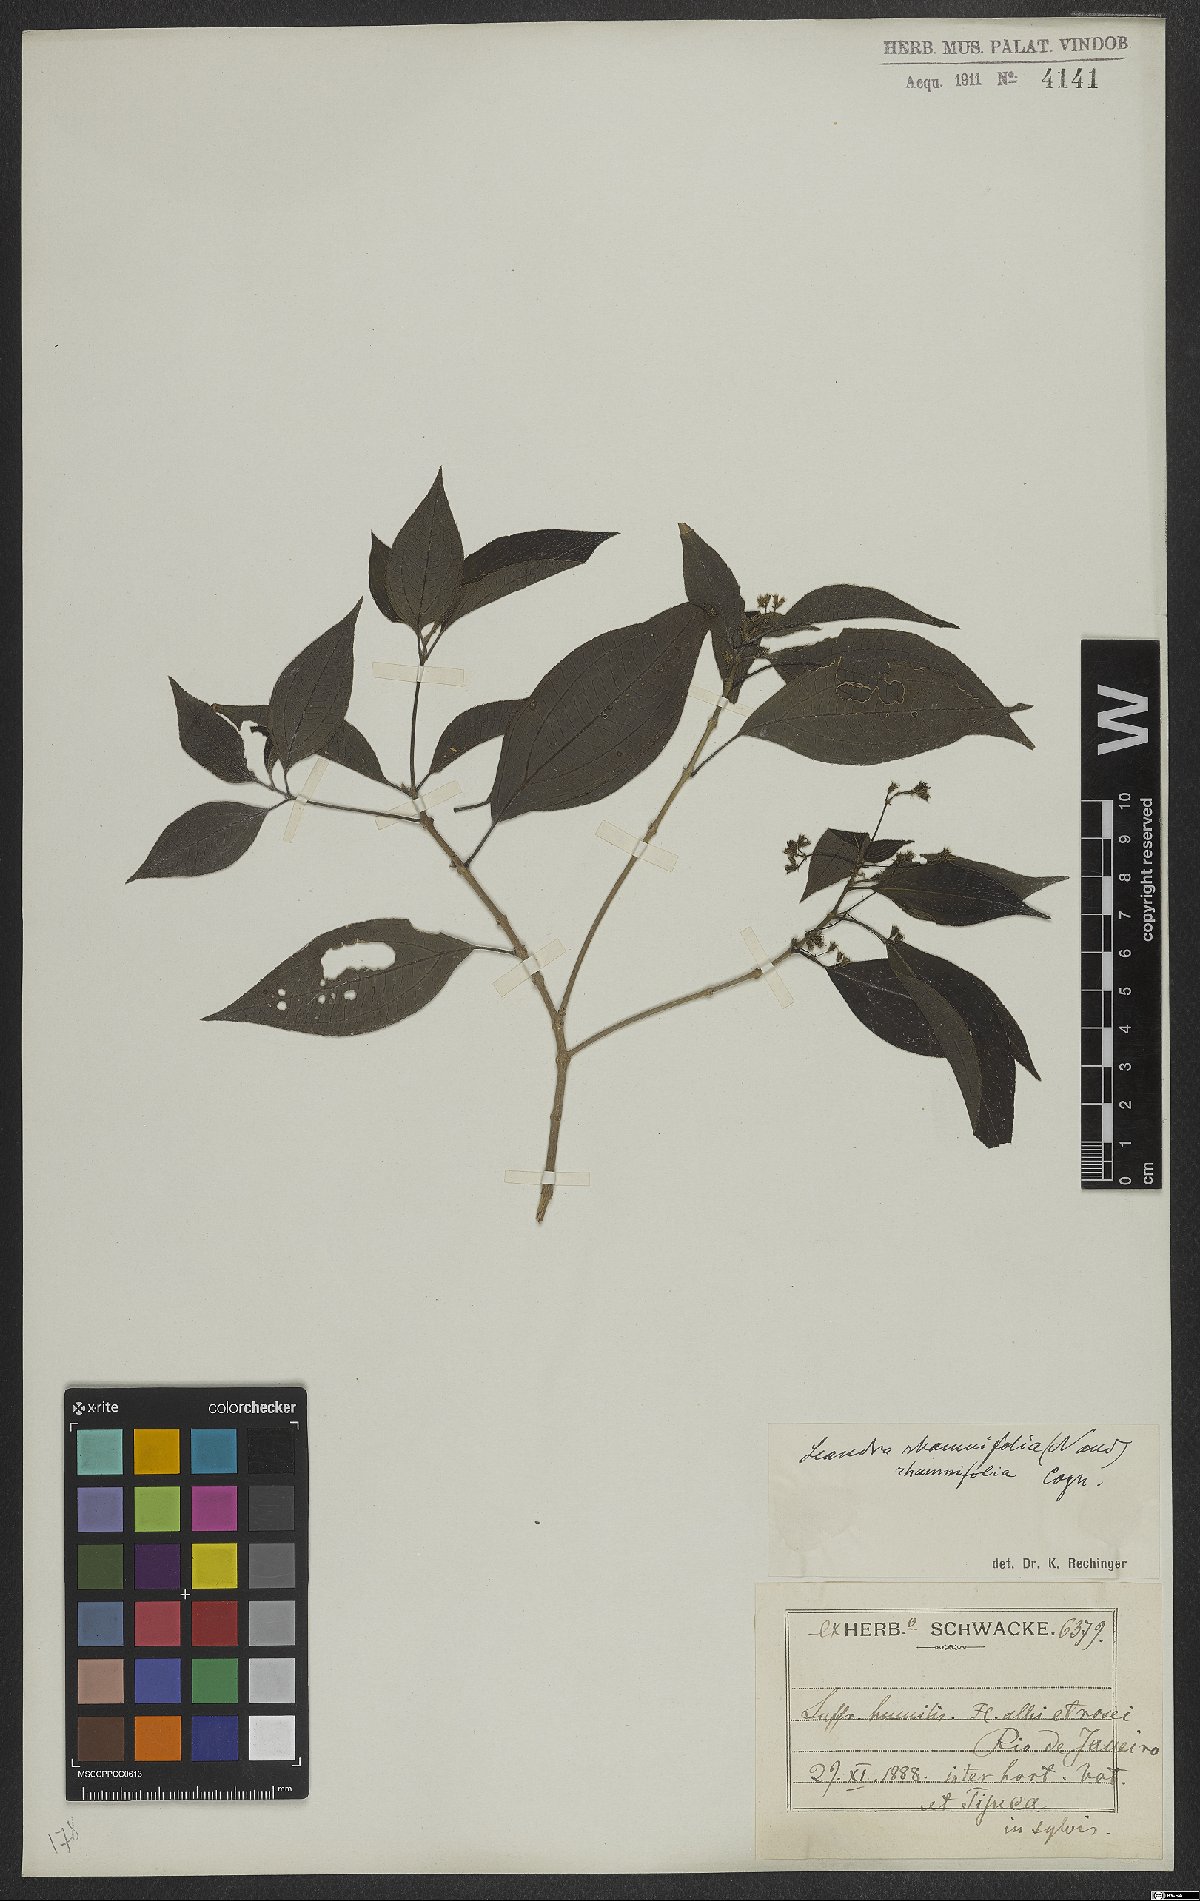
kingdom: Plantae
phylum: Tracheophyta
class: Magnoliopsida
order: Myrtales
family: Melastomataceae
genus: Miconia
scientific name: Miconia rhamnifolia
